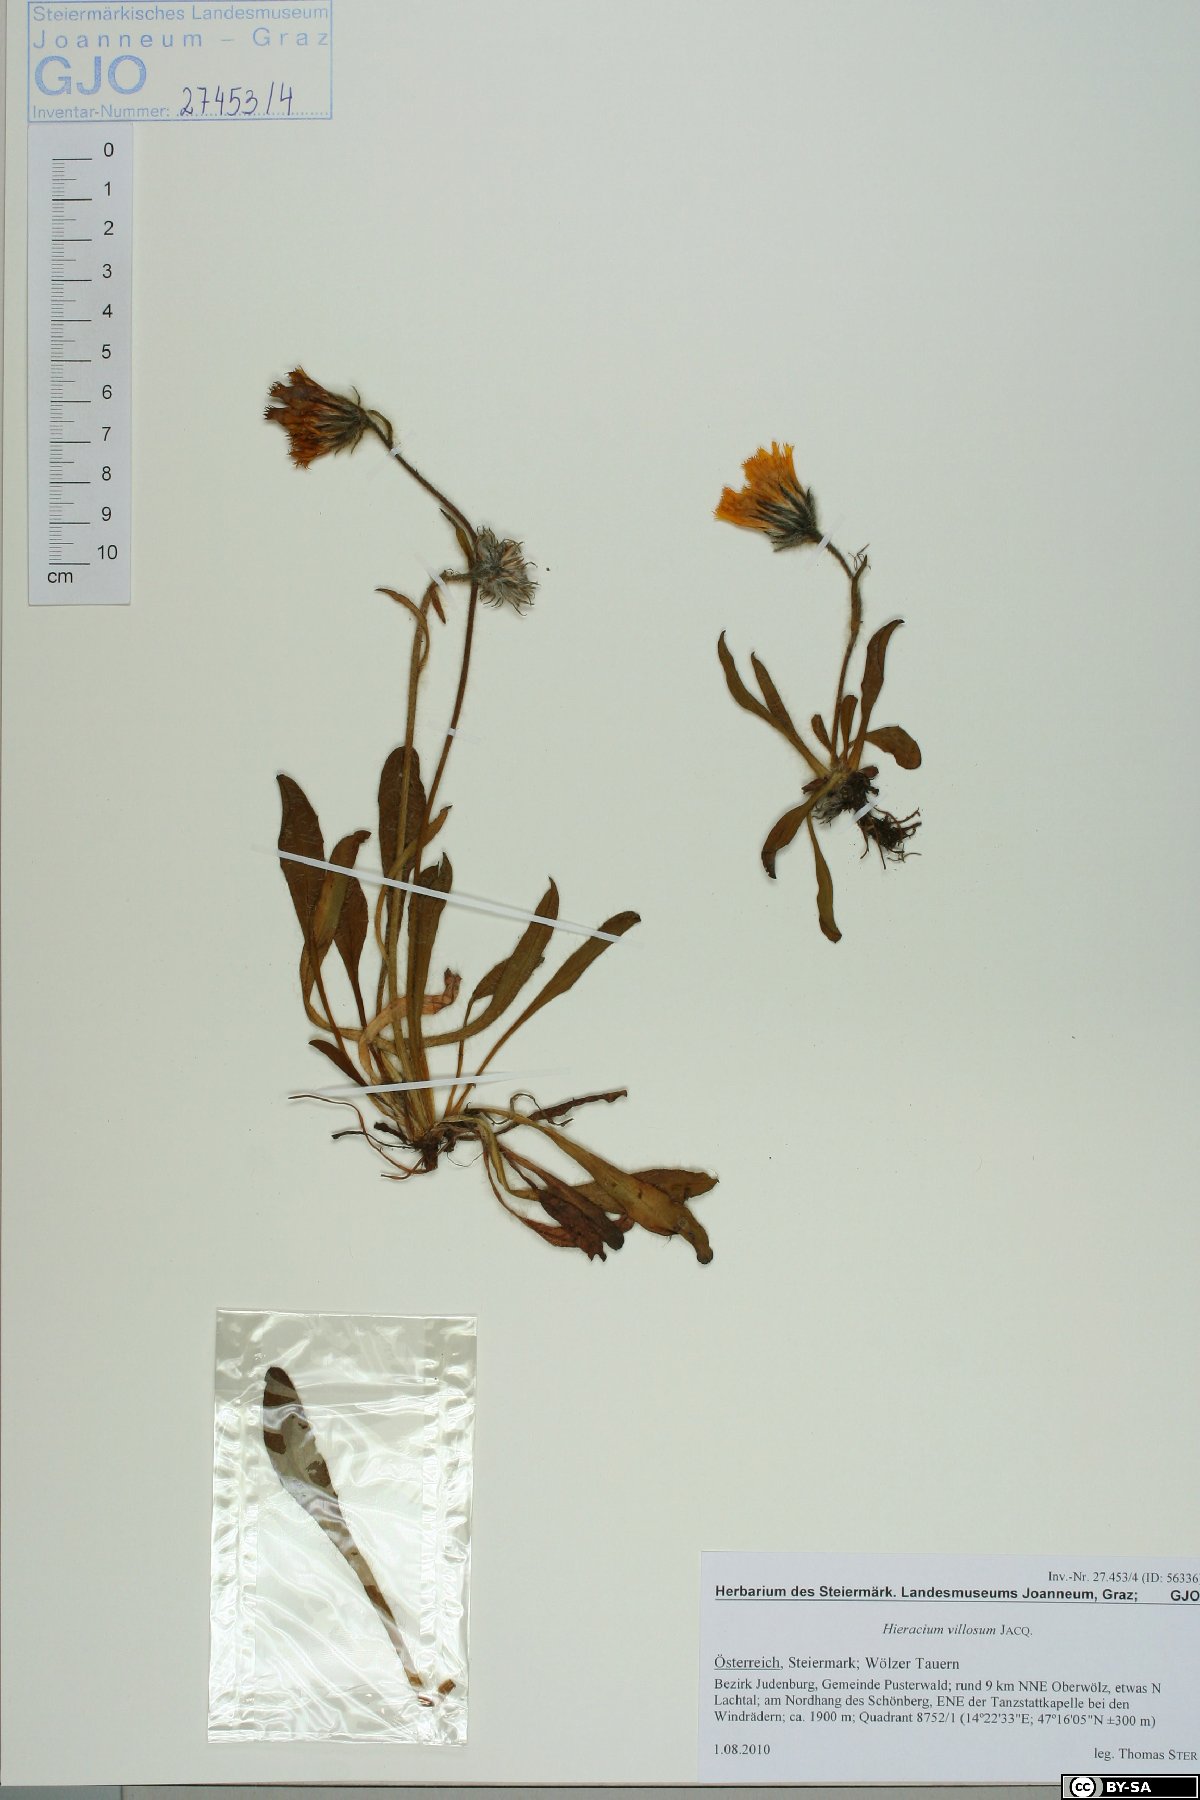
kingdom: Plantae
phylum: Tracheophyta
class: Magnoliopsida
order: Asterales
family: Asteraceae
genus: Hieracium
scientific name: Hieracium villosum
